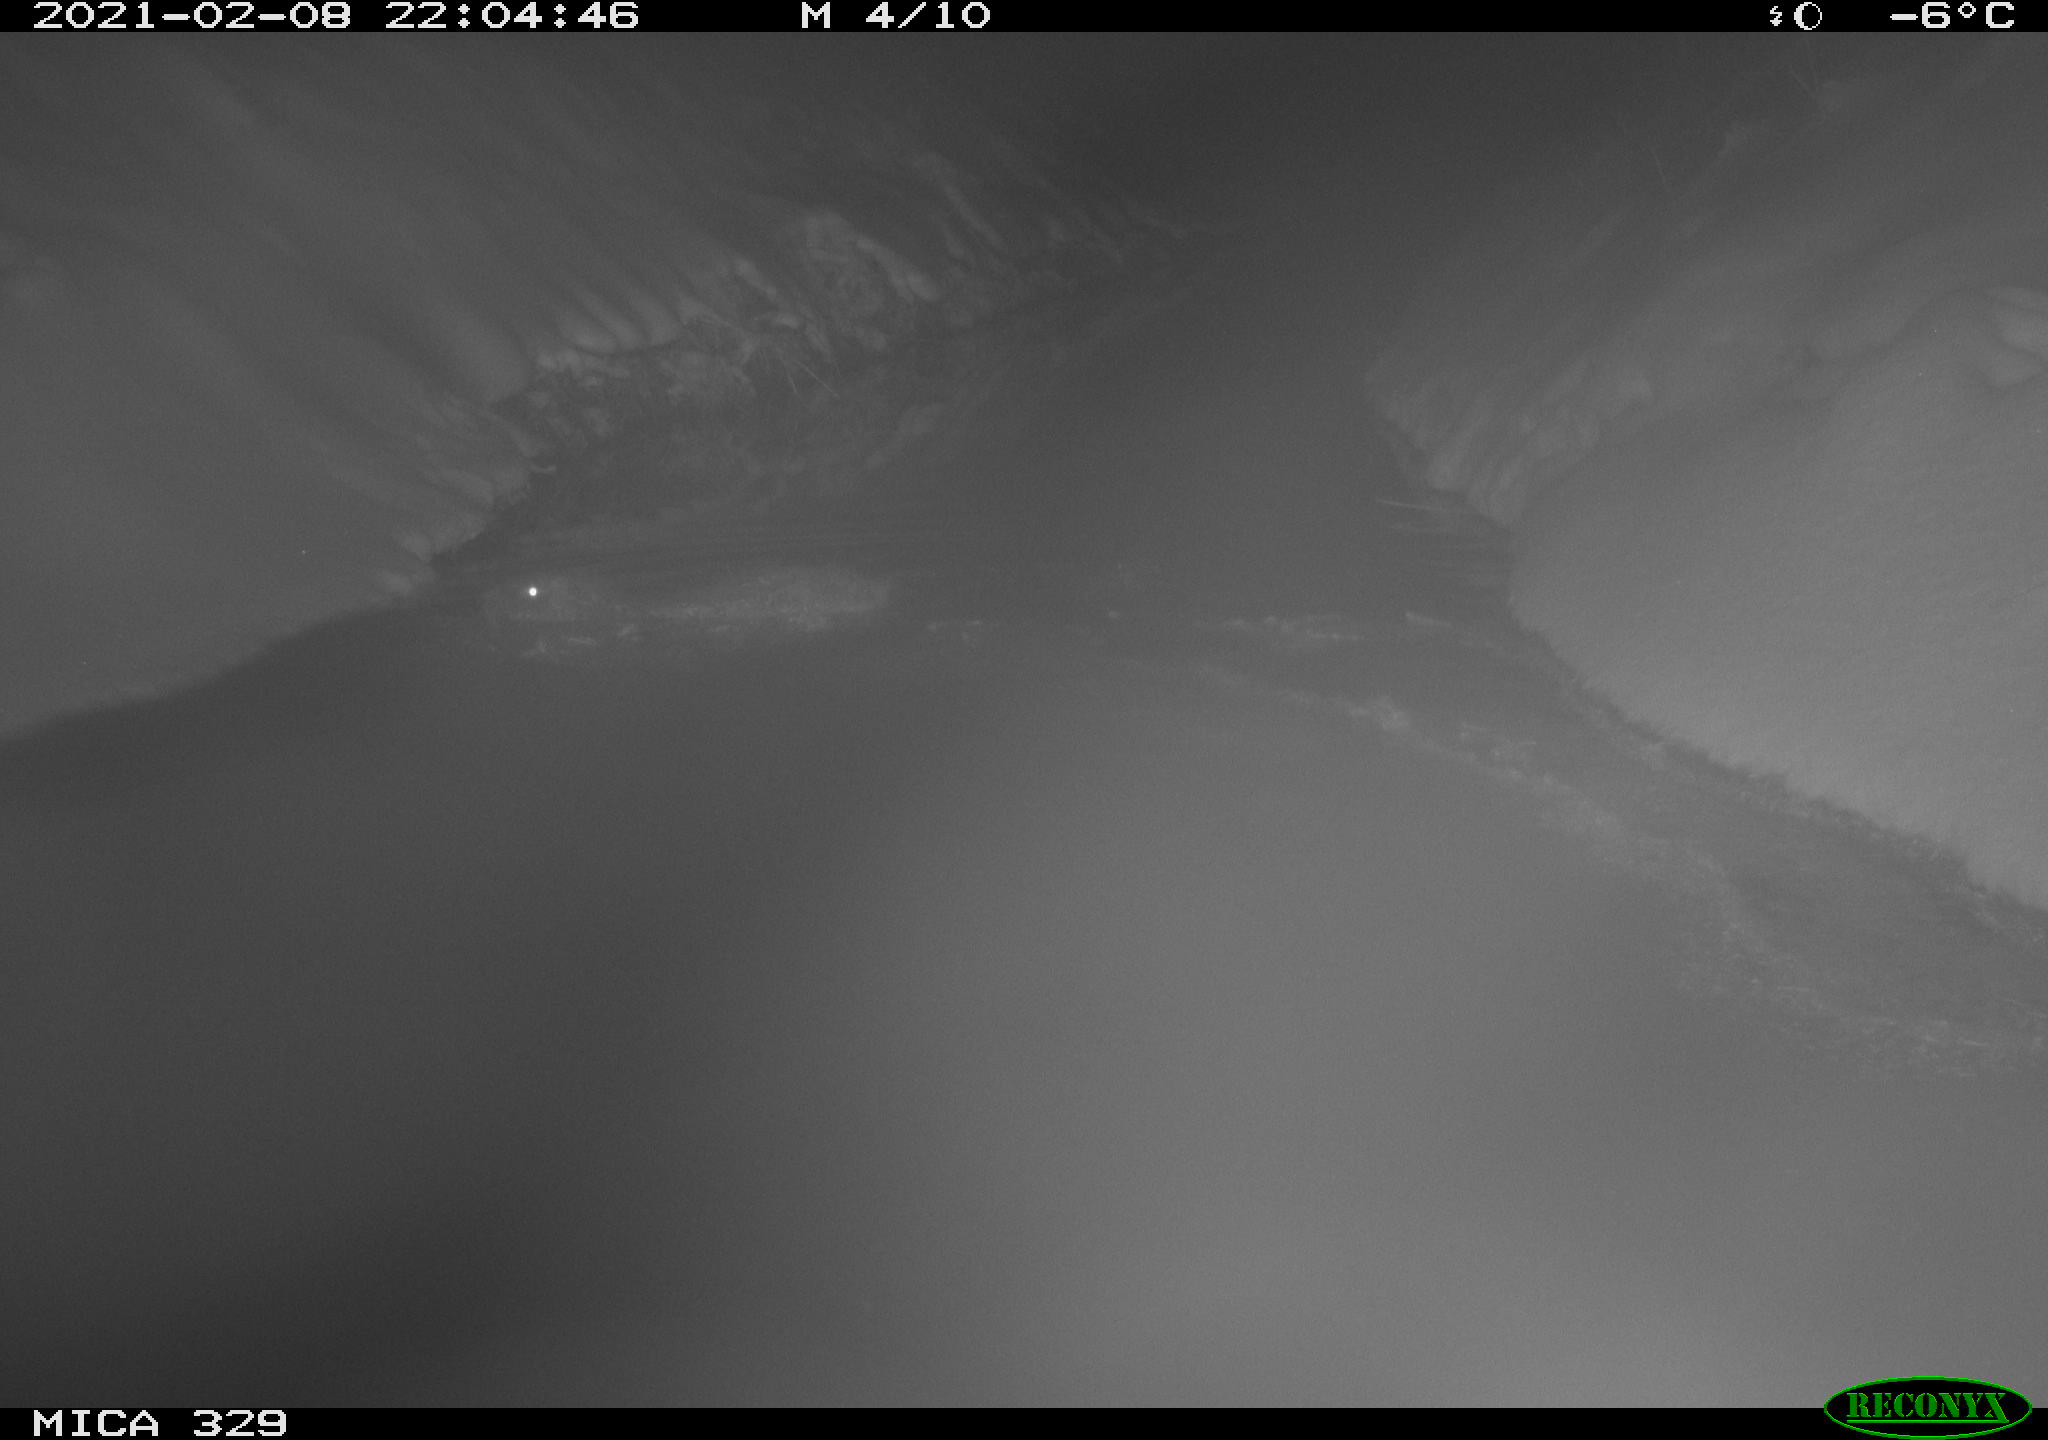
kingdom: Animalia
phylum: Chordata
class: Mammalia
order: Rodentia
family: Myocastoridae
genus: Myocastor
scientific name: Myocastor coypus
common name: Coypu
